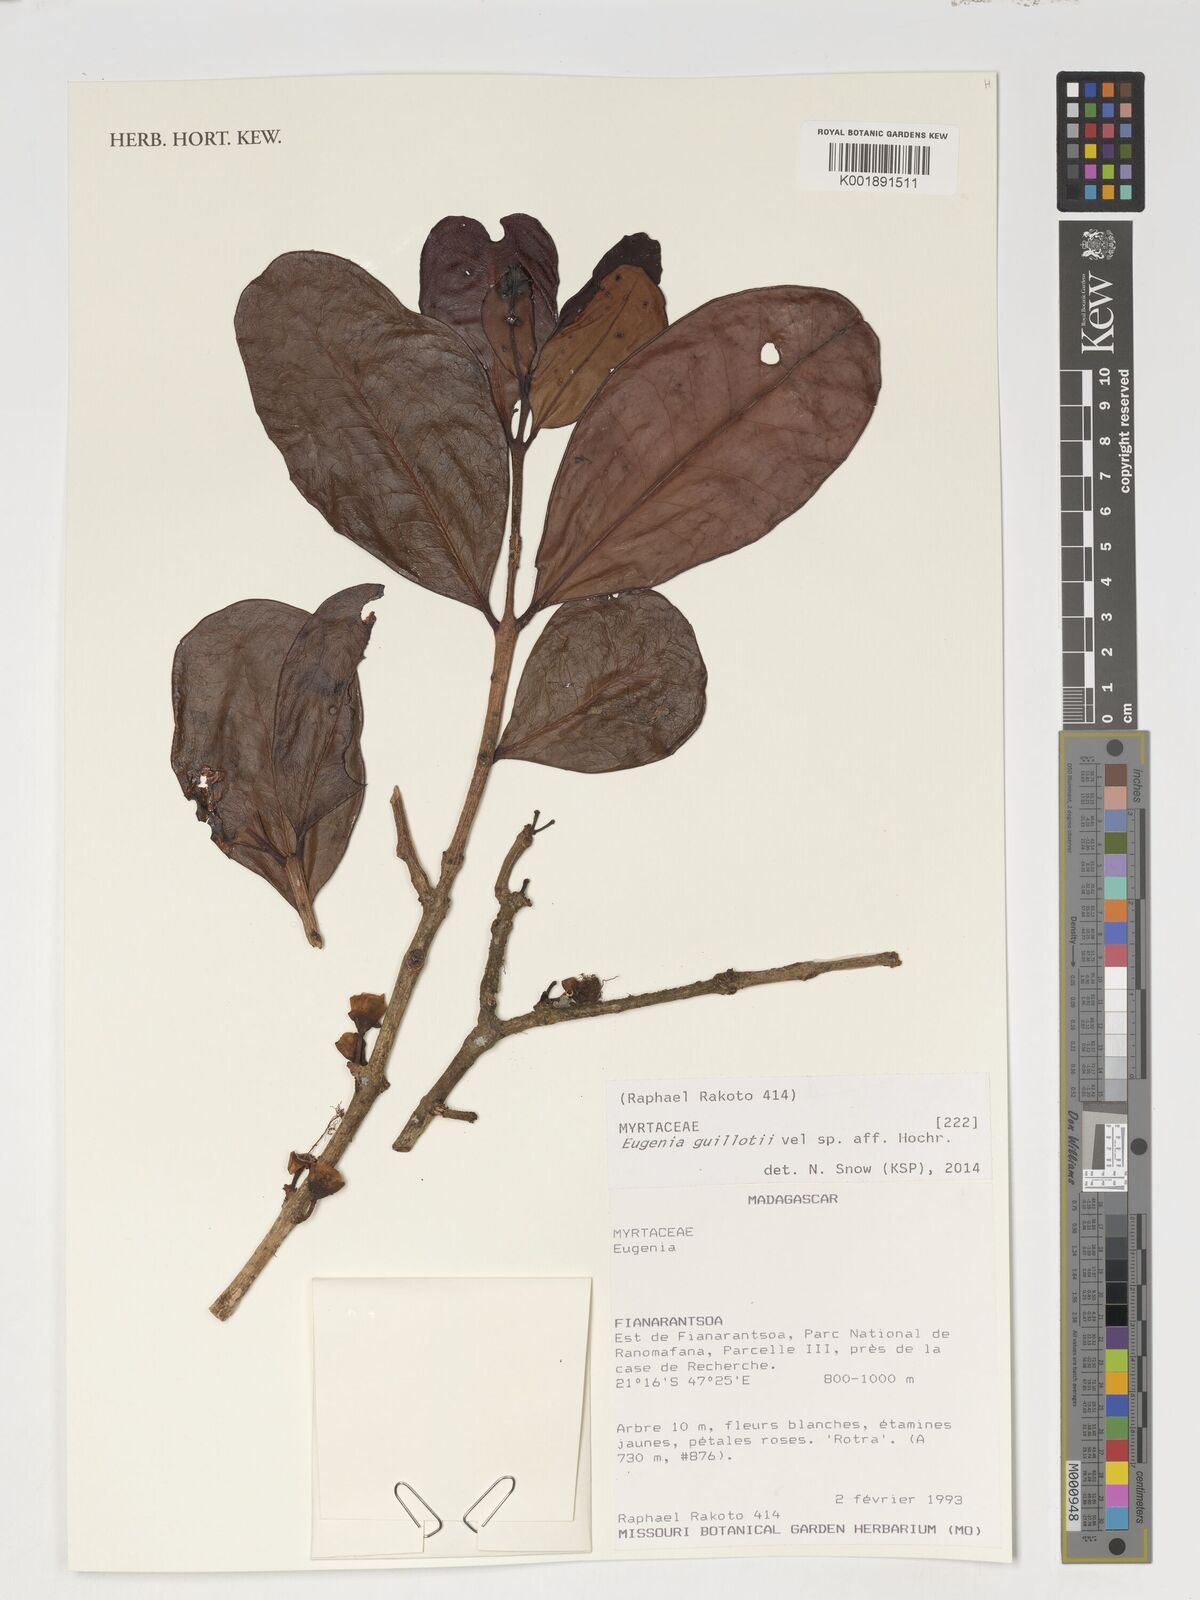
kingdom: Plantae
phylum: Tracheophyta
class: Magnoliopsida
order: Myrtales
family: Myrtaceae
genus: Eugenia
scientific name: Eugenia guillotii
